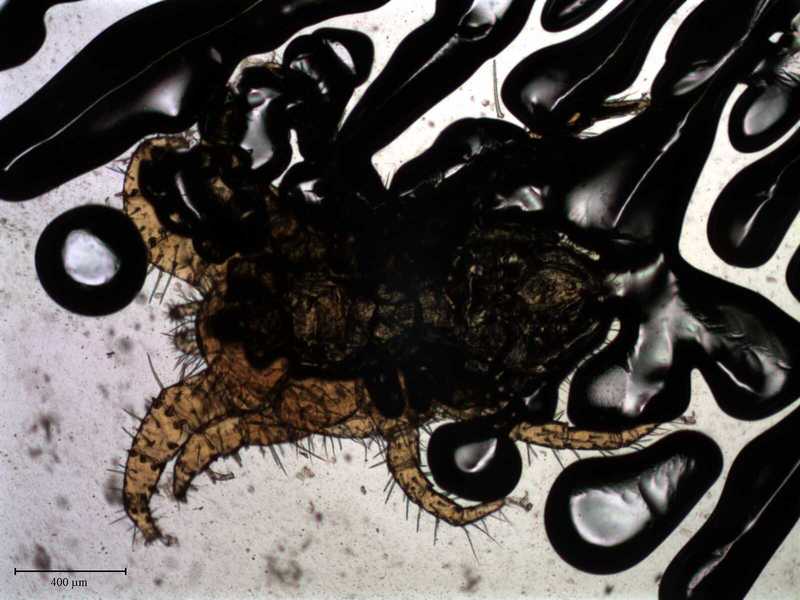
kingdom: Animalia
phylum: Arthropoda
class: Arachnida
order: Mesostigmata
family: Laelapidae
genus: Dinogamasus
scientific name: Dinogamasus
